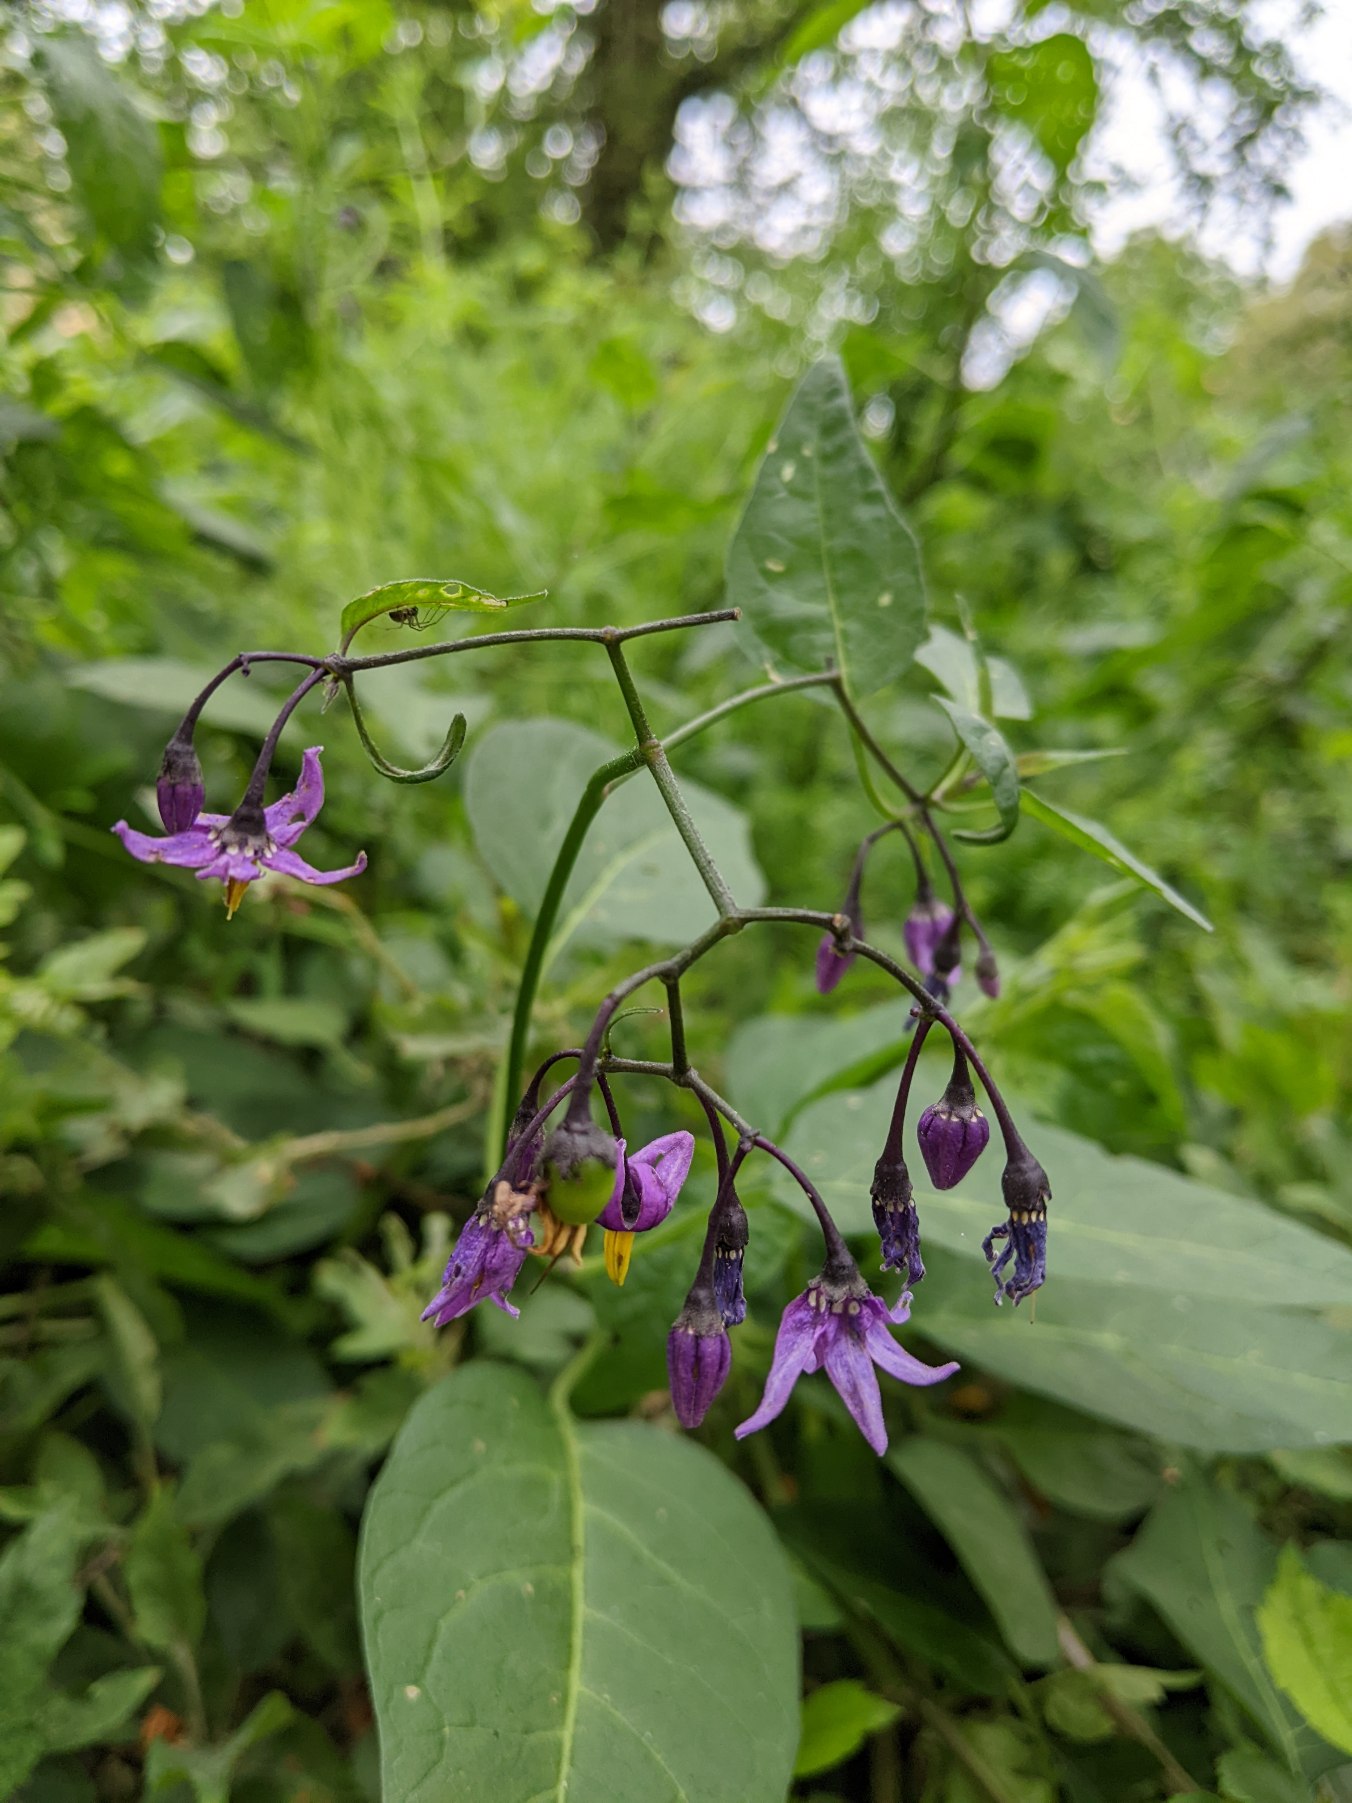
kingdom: Plantae
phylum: Tracheophyta
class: Magnoliopsida
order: Solanales
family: Solanaceae
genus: Solanum
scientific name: Solanum dulcamara
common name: Bittersød natskygge
